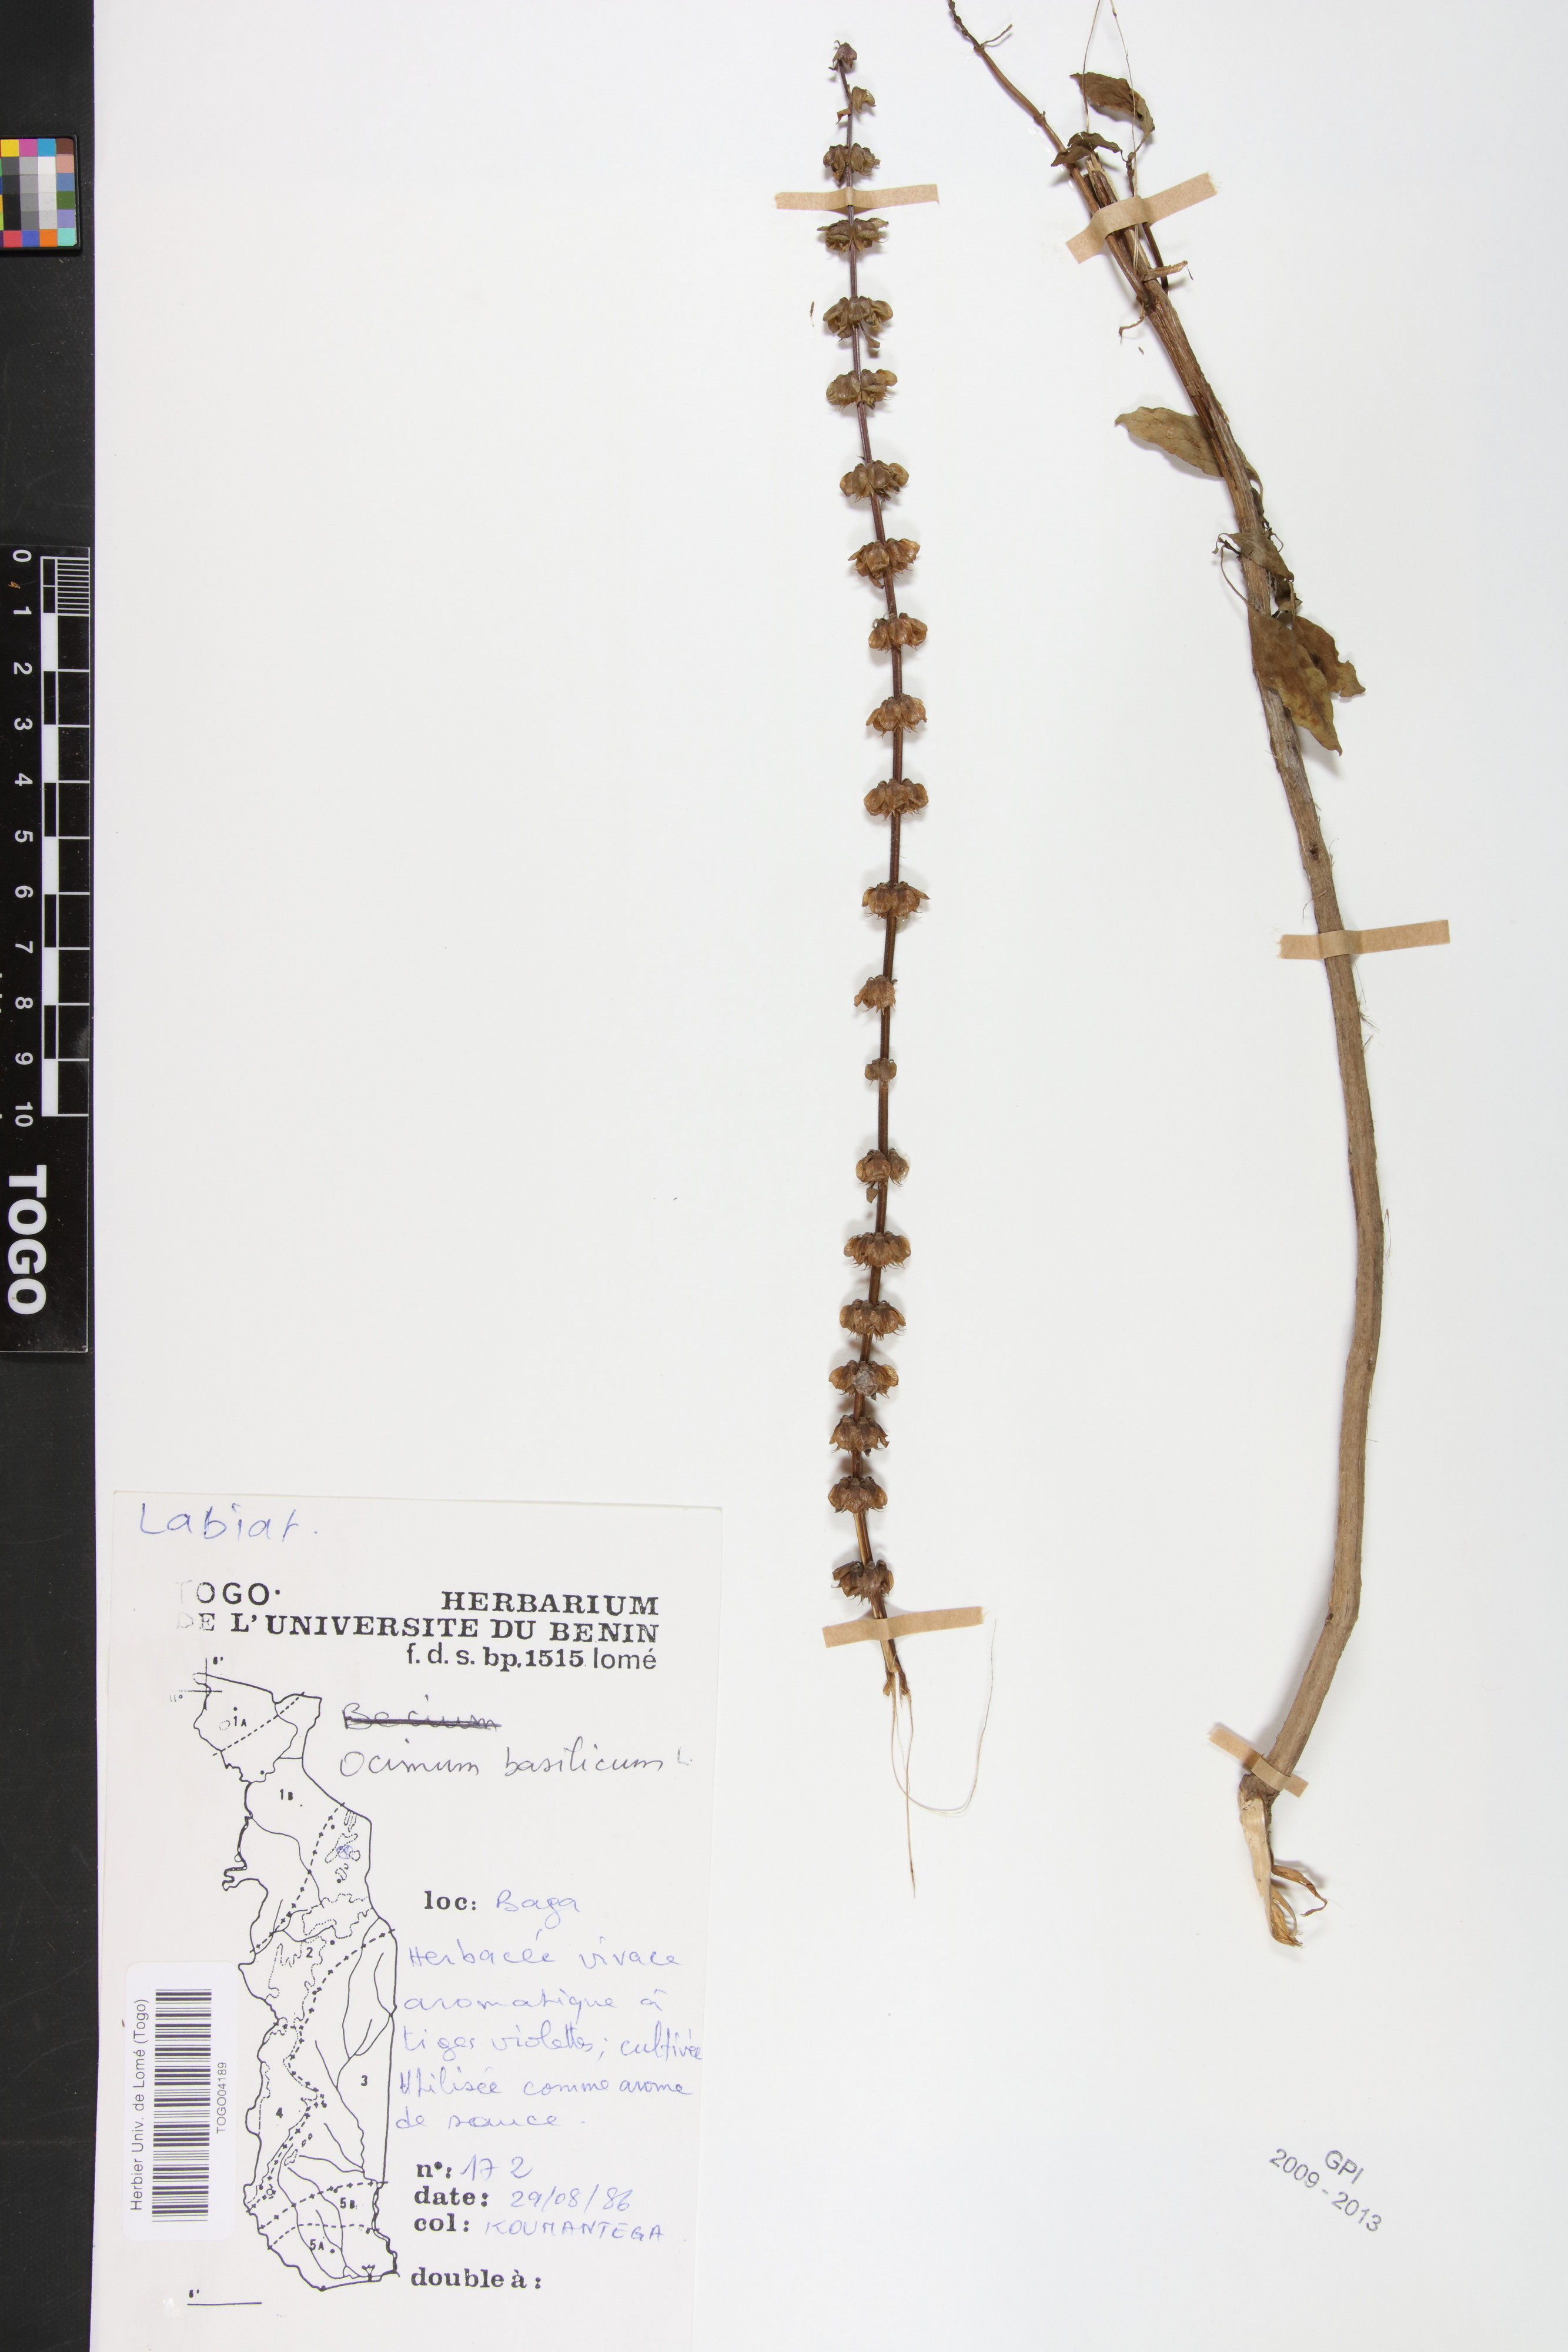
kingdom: Plantae
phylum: Tracheophyta
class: Magnoliopsida
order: Lamiales
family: Lamiaceae
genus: Ocimum
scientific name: Ocimum basilicum
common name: Sweet basil
